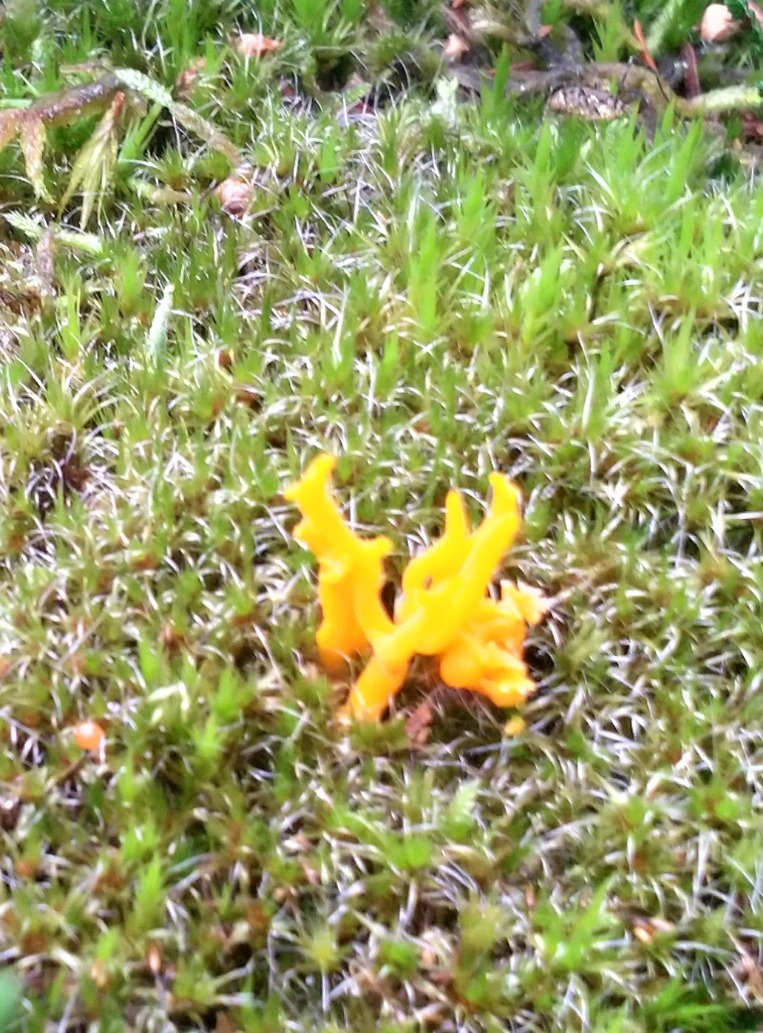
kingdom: Fungi
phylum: Basidiomycota
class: Dacrymycetes
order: Dacrymycetales
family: Dacrymycetaceae
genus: Calocera
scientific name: Calocera viscosa
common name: Almindelig guldgaffel
